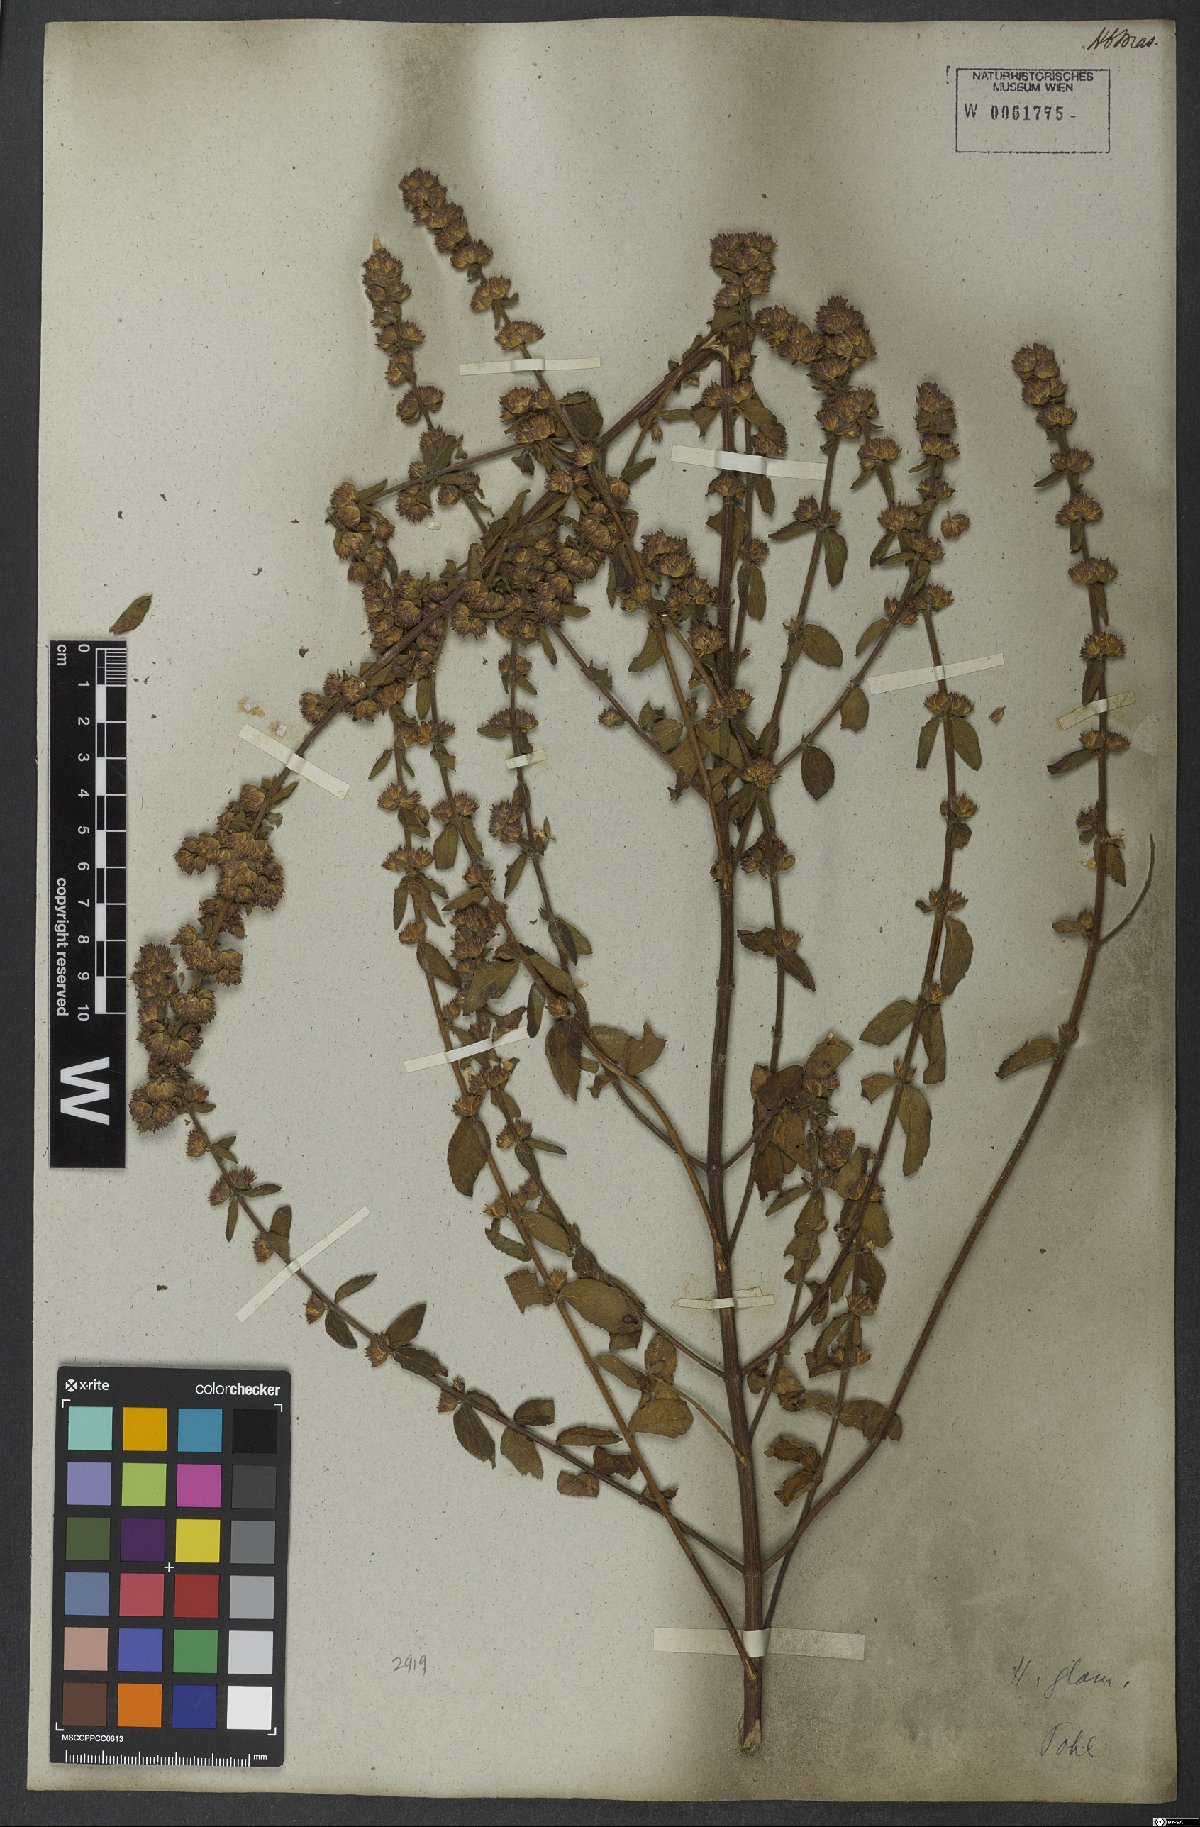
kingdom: Plantae
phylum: Tracheophyta
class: Magnoliopsida
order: Lamiales
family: Lamiaceae
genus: Oocephalus
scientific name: Oocephalus oppositiflorus
